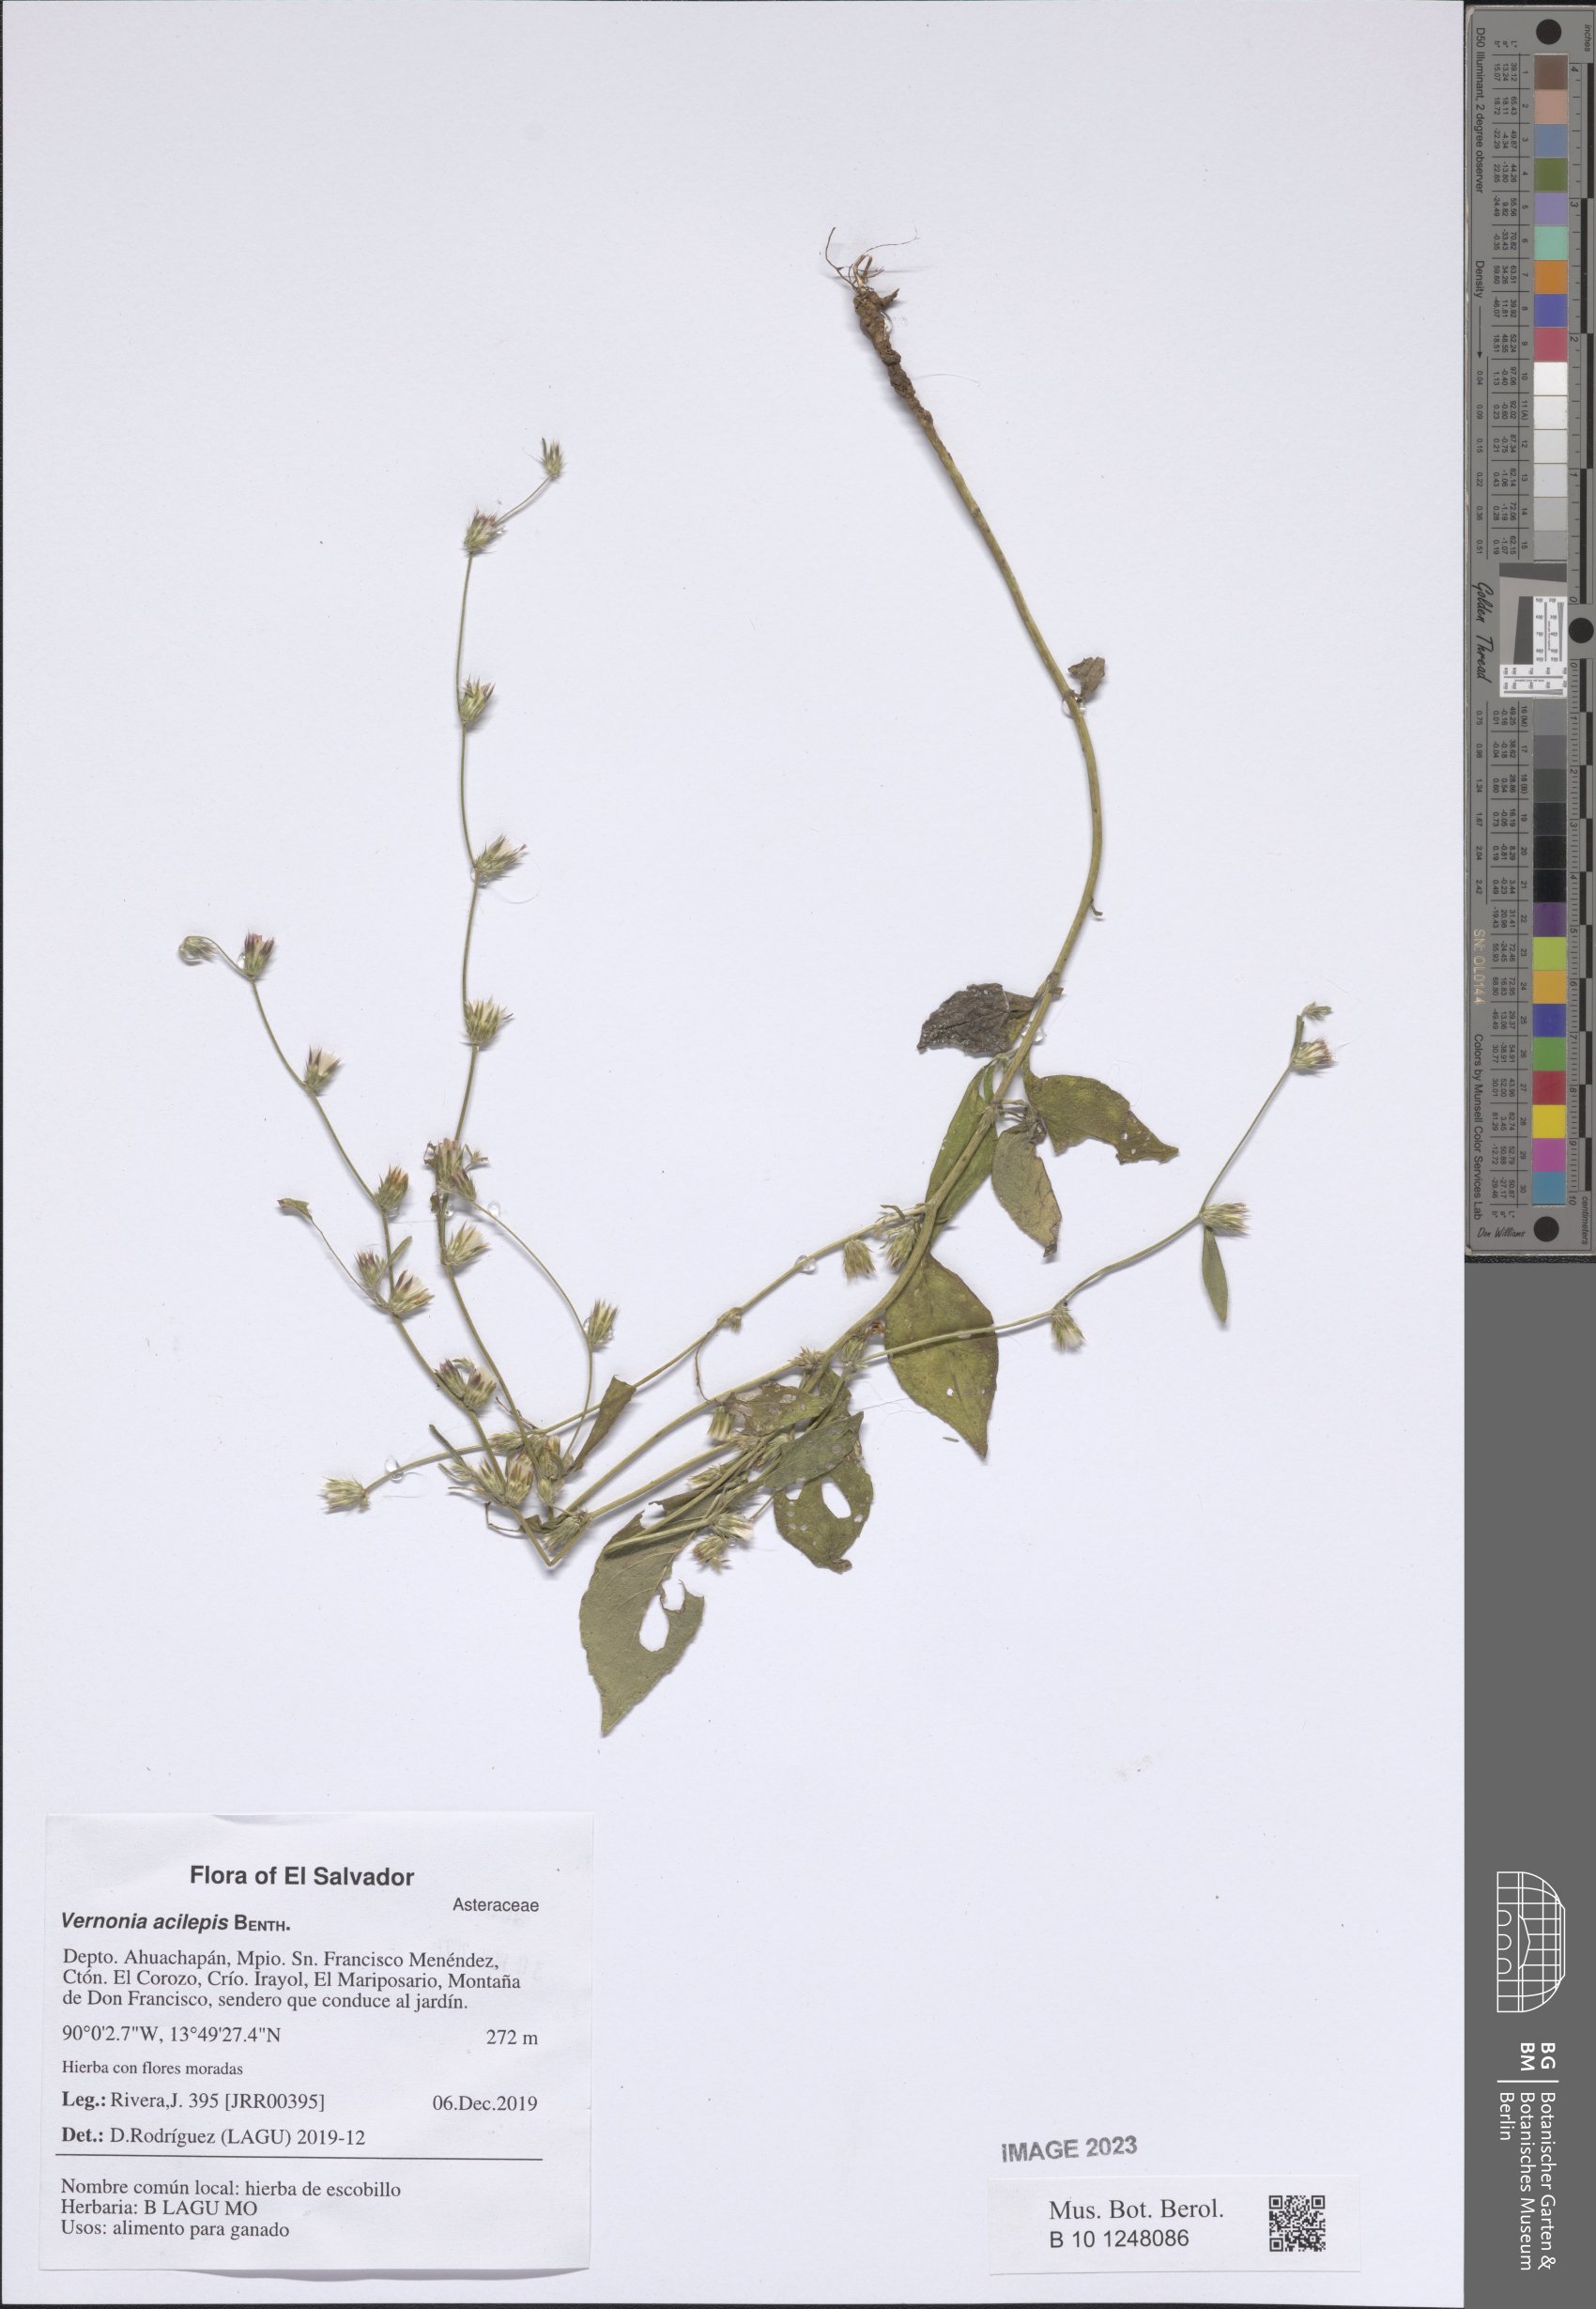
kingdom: Plantae
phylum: Tracheophyta
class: Magnoliopsida
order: Asterales
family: Asteraceae
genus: Lepidaploa
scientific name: Lepidaploa acilepis
